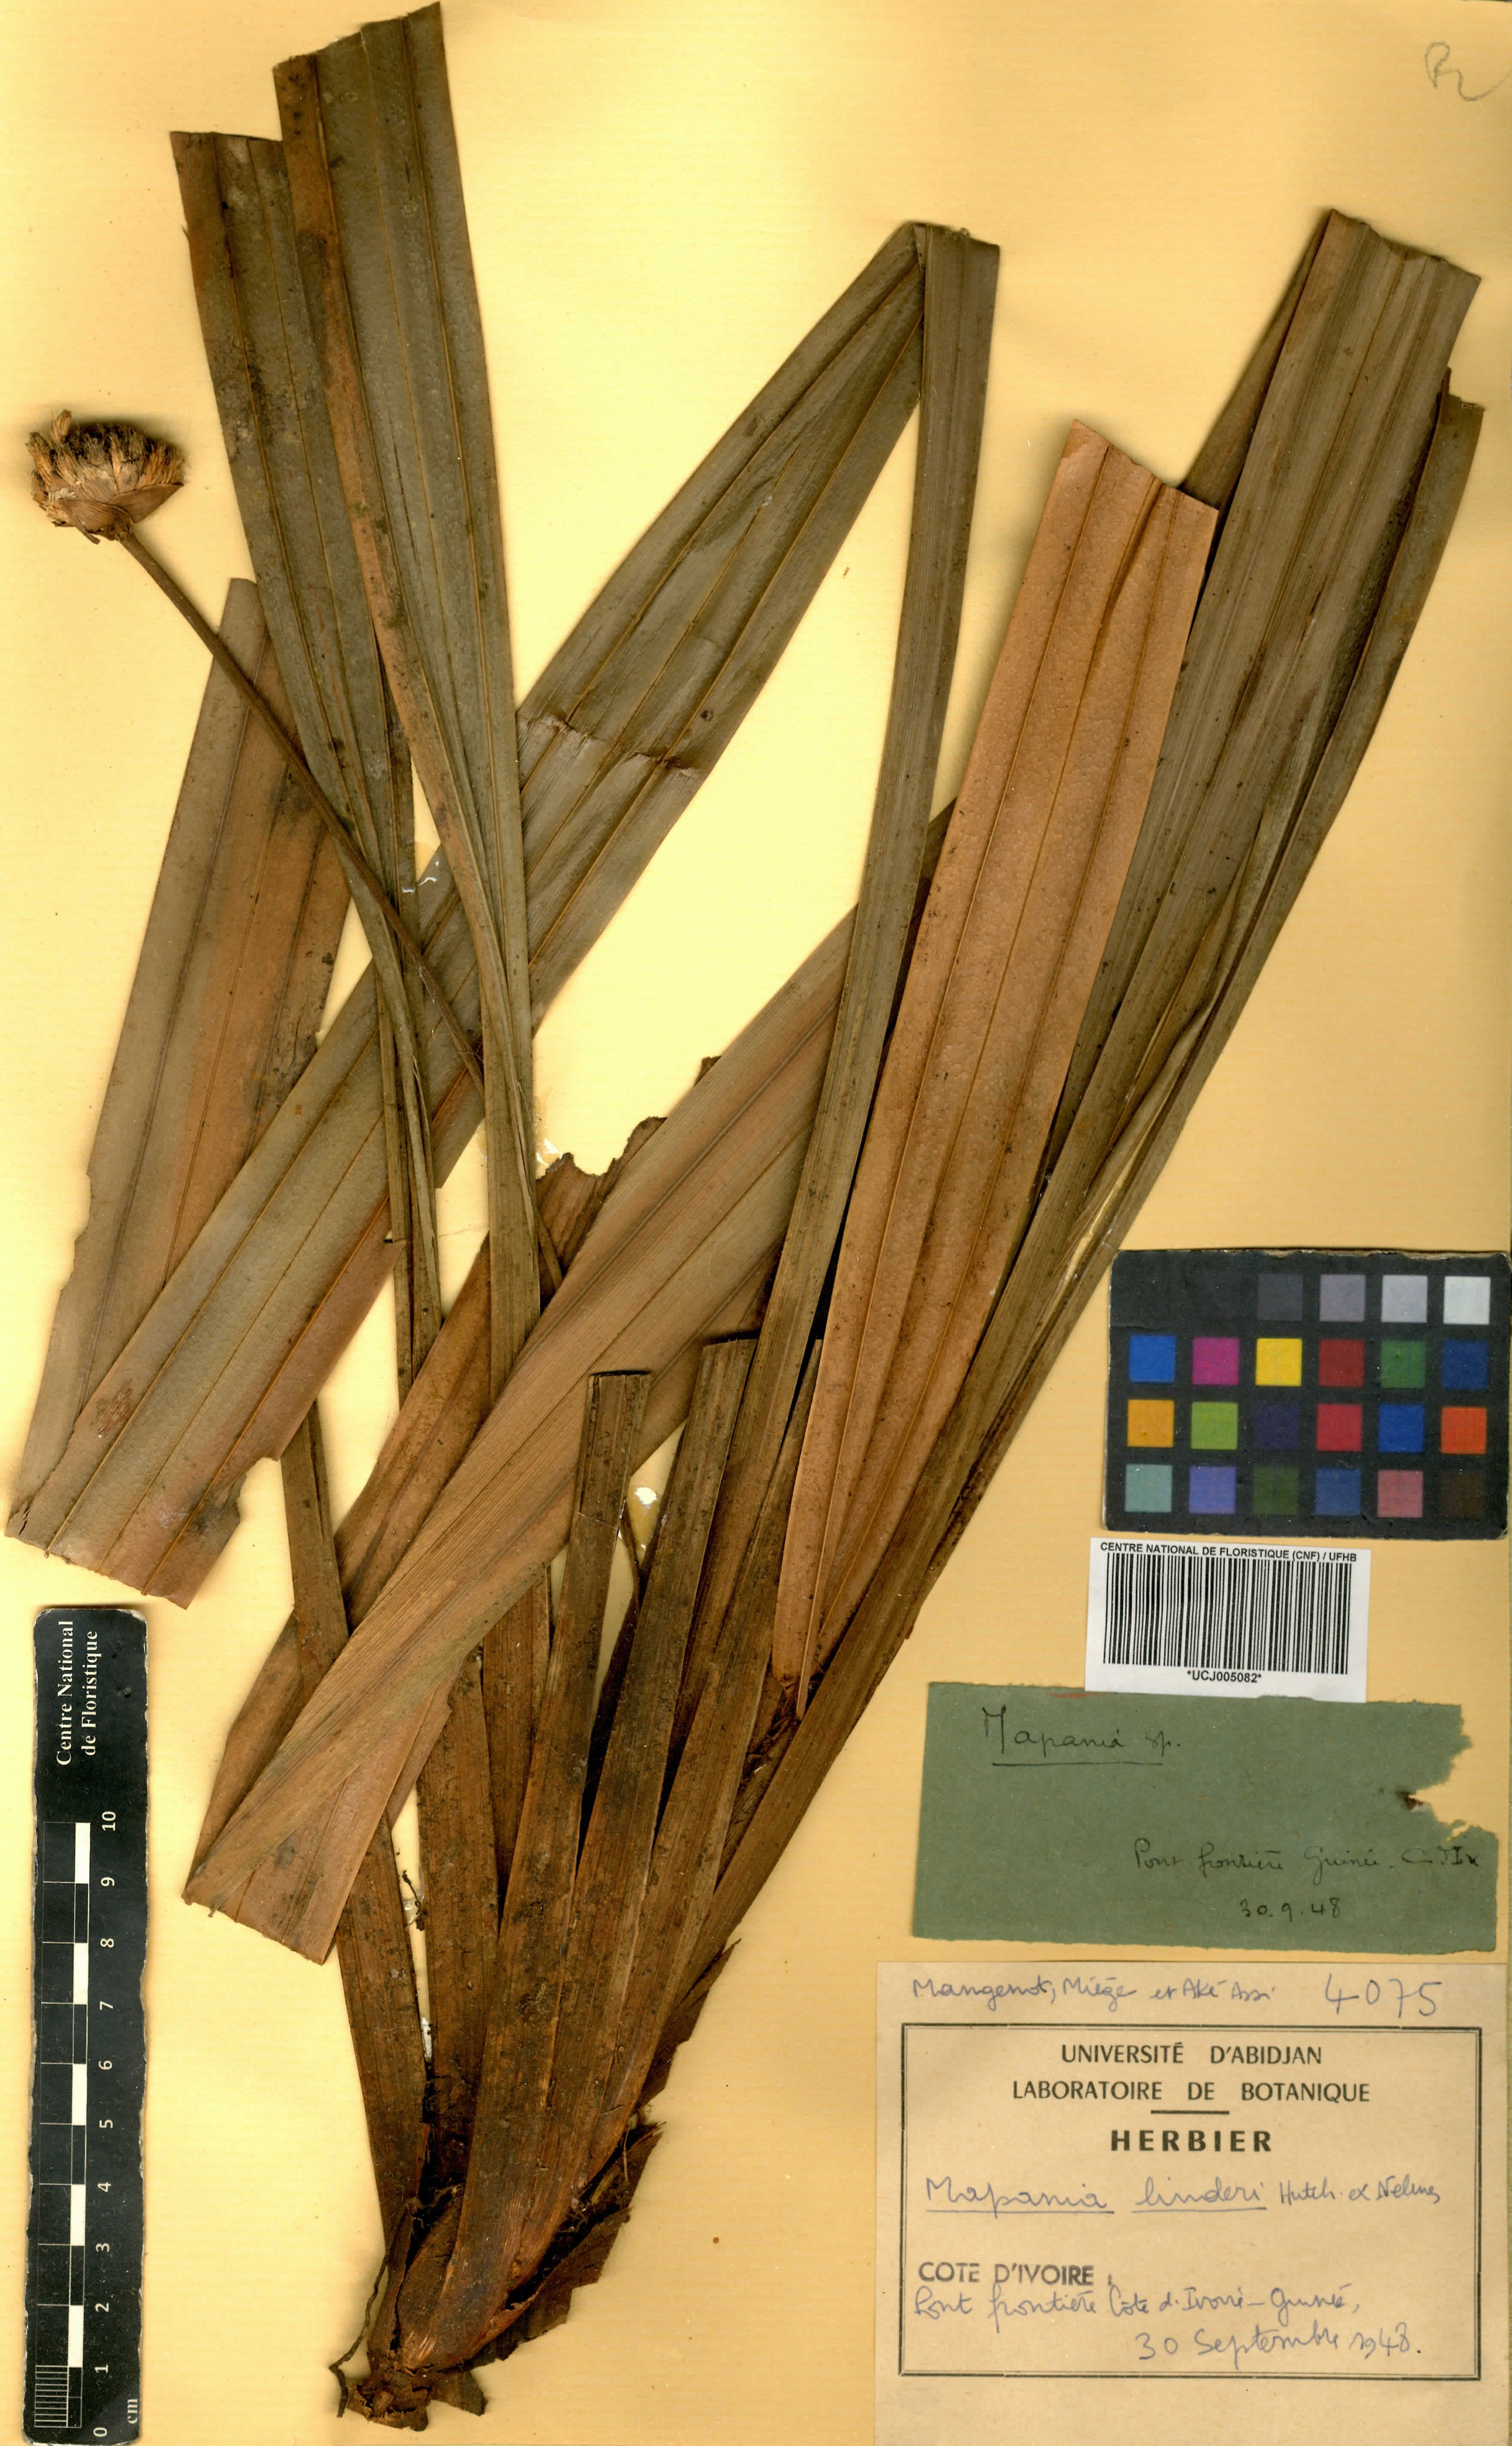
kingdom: Plantae
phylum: Tracheophyta
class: Liliopsida
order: Poales
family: Cyperaceae
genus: Mapania
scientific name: Mapania linderi
